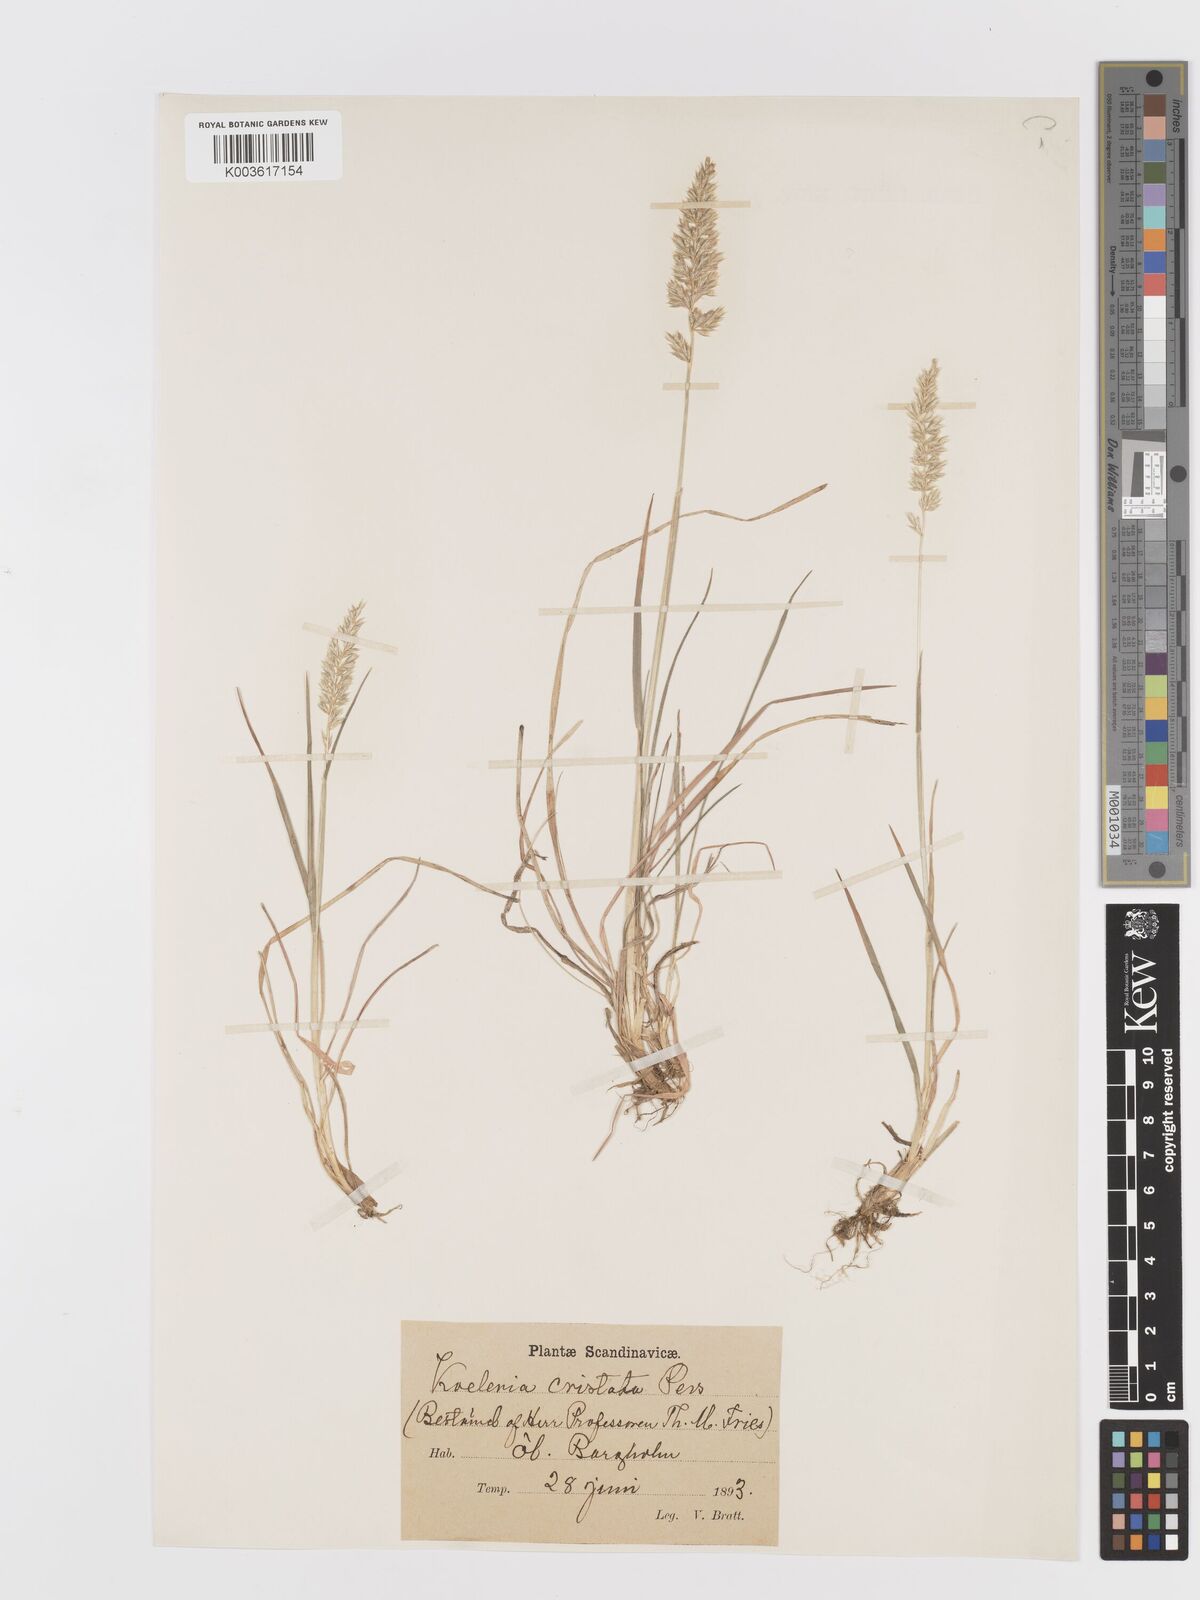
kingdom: Plantae
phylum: Tracheophyta
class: Liliopsida
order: Poales
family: Poaceae
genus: Koeleria
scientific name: Koeleria macrantha
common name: Crested hair-grass
